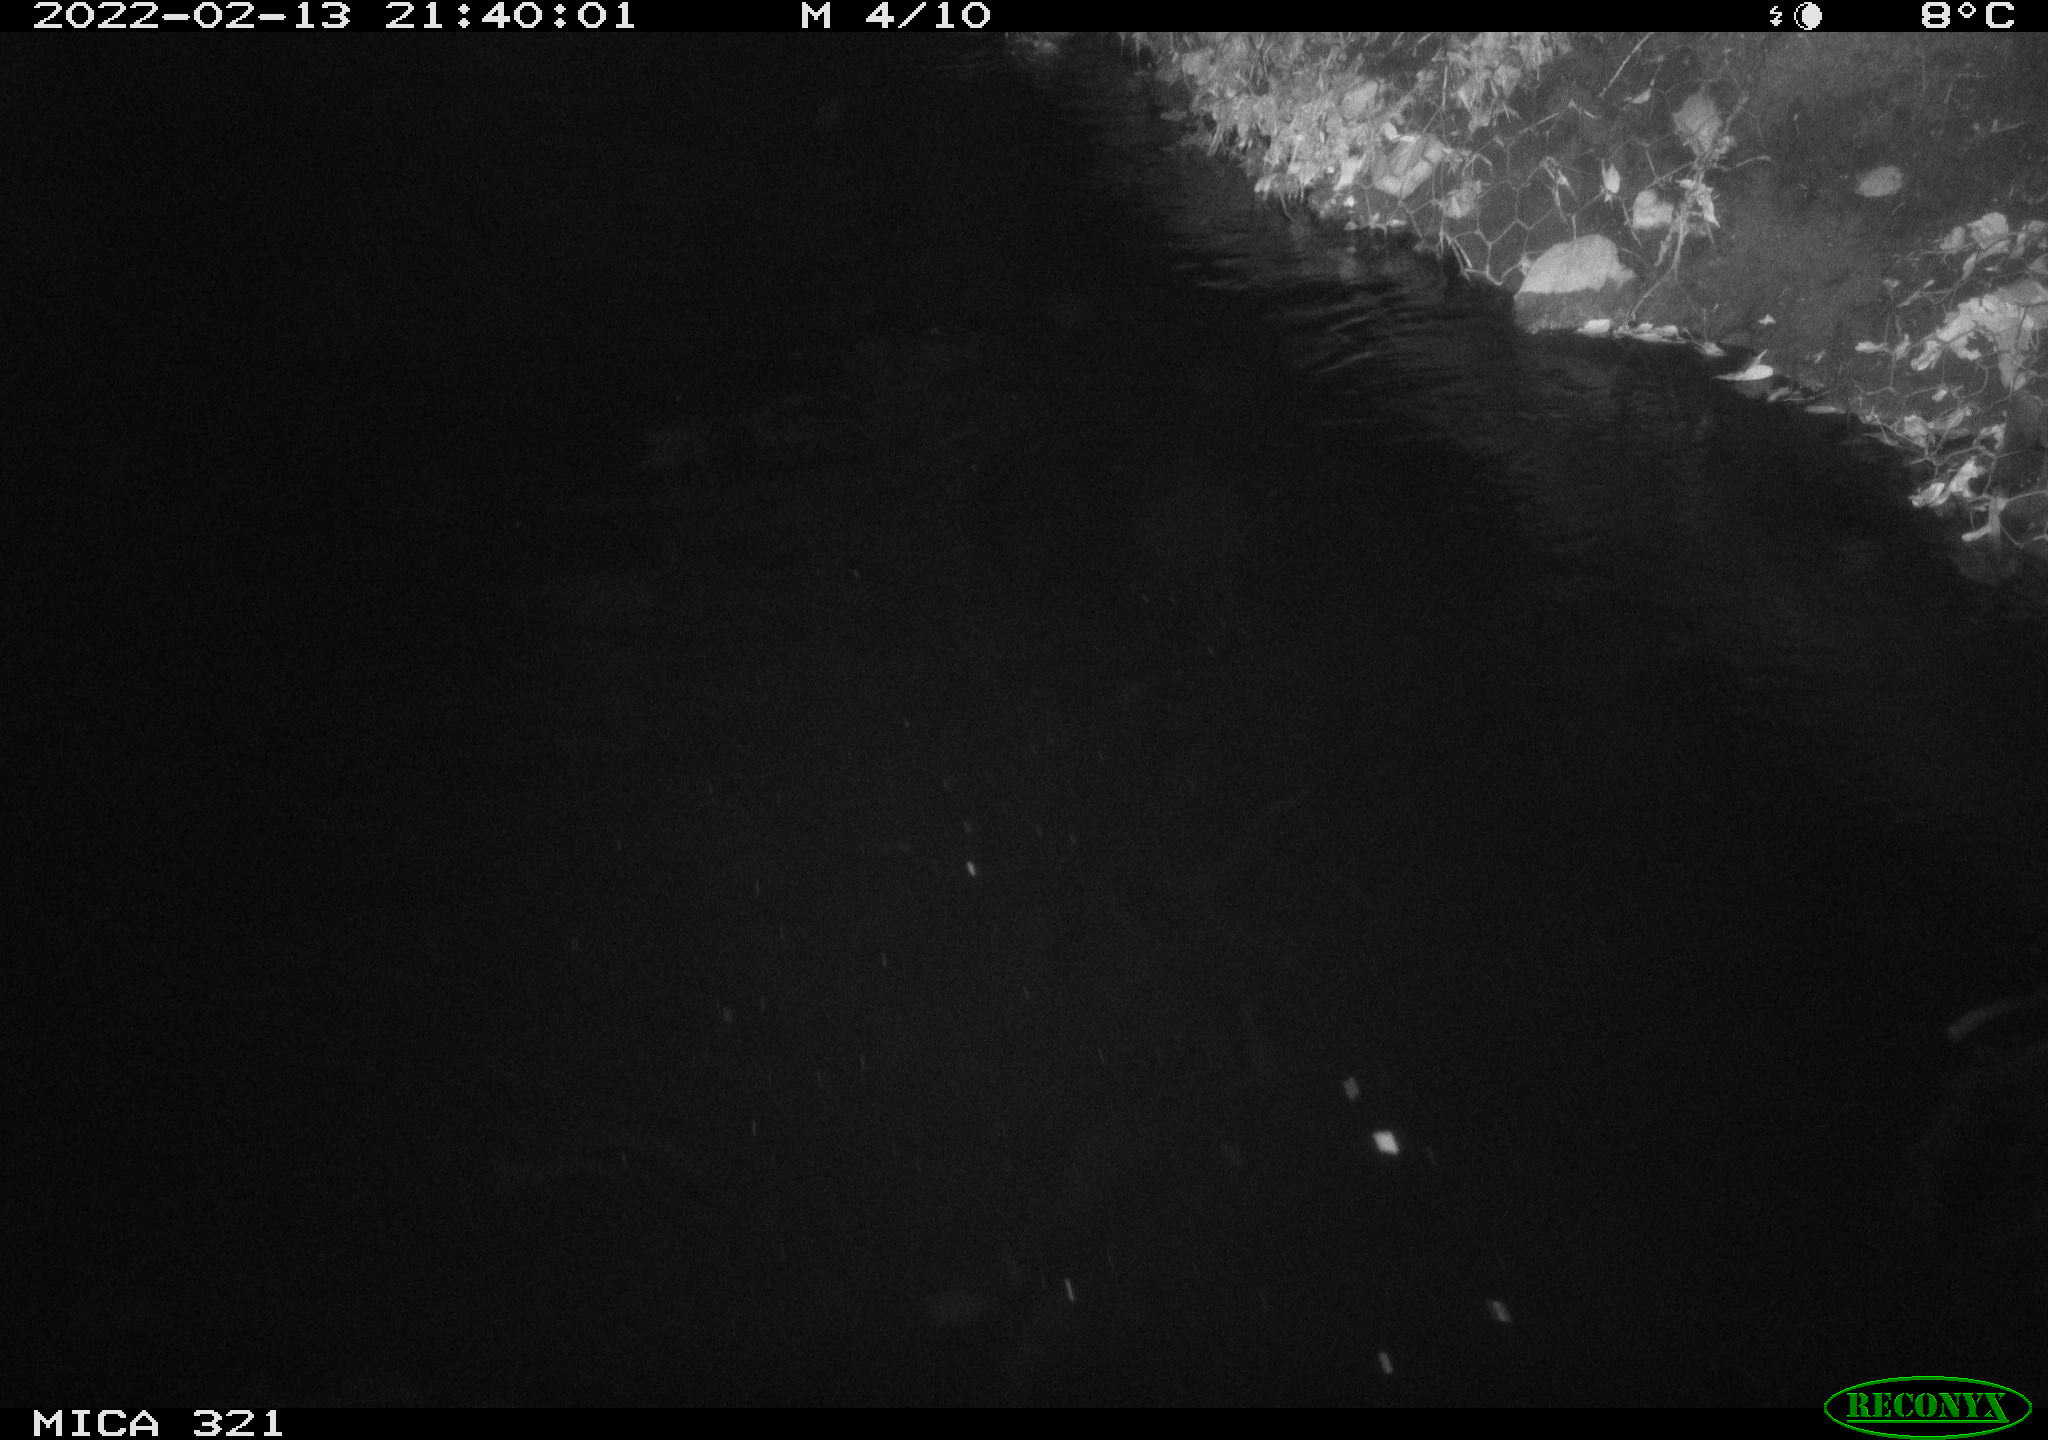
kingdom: Animalia
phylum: Chordata
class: Aves
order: Anseriformes
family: Anatidae
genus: Anas
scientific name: Anas platyrhynchos
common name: Mallard
